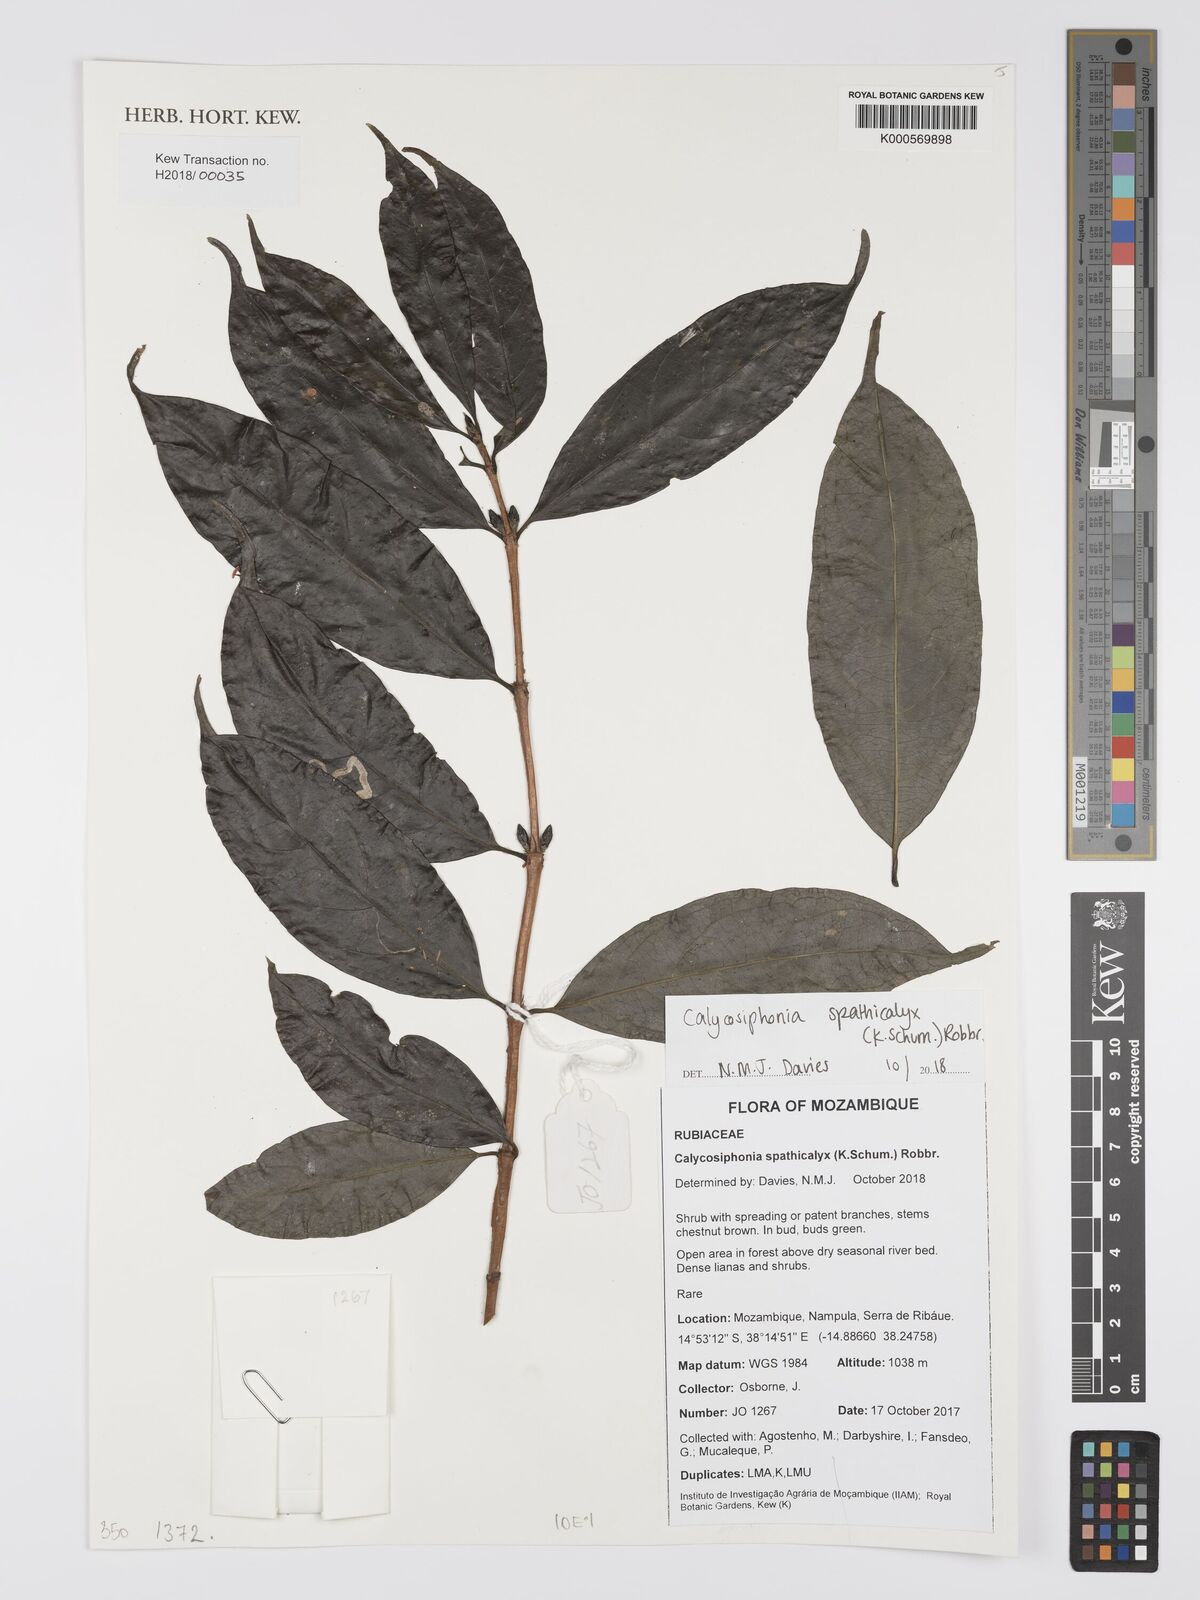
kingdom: Plantae
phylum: Tracheophyta
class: Magnoliopsida
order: Gentianales
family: Rubiaceae
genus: Calycosiphonia
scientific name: Calycosiphonia spathicalyx
